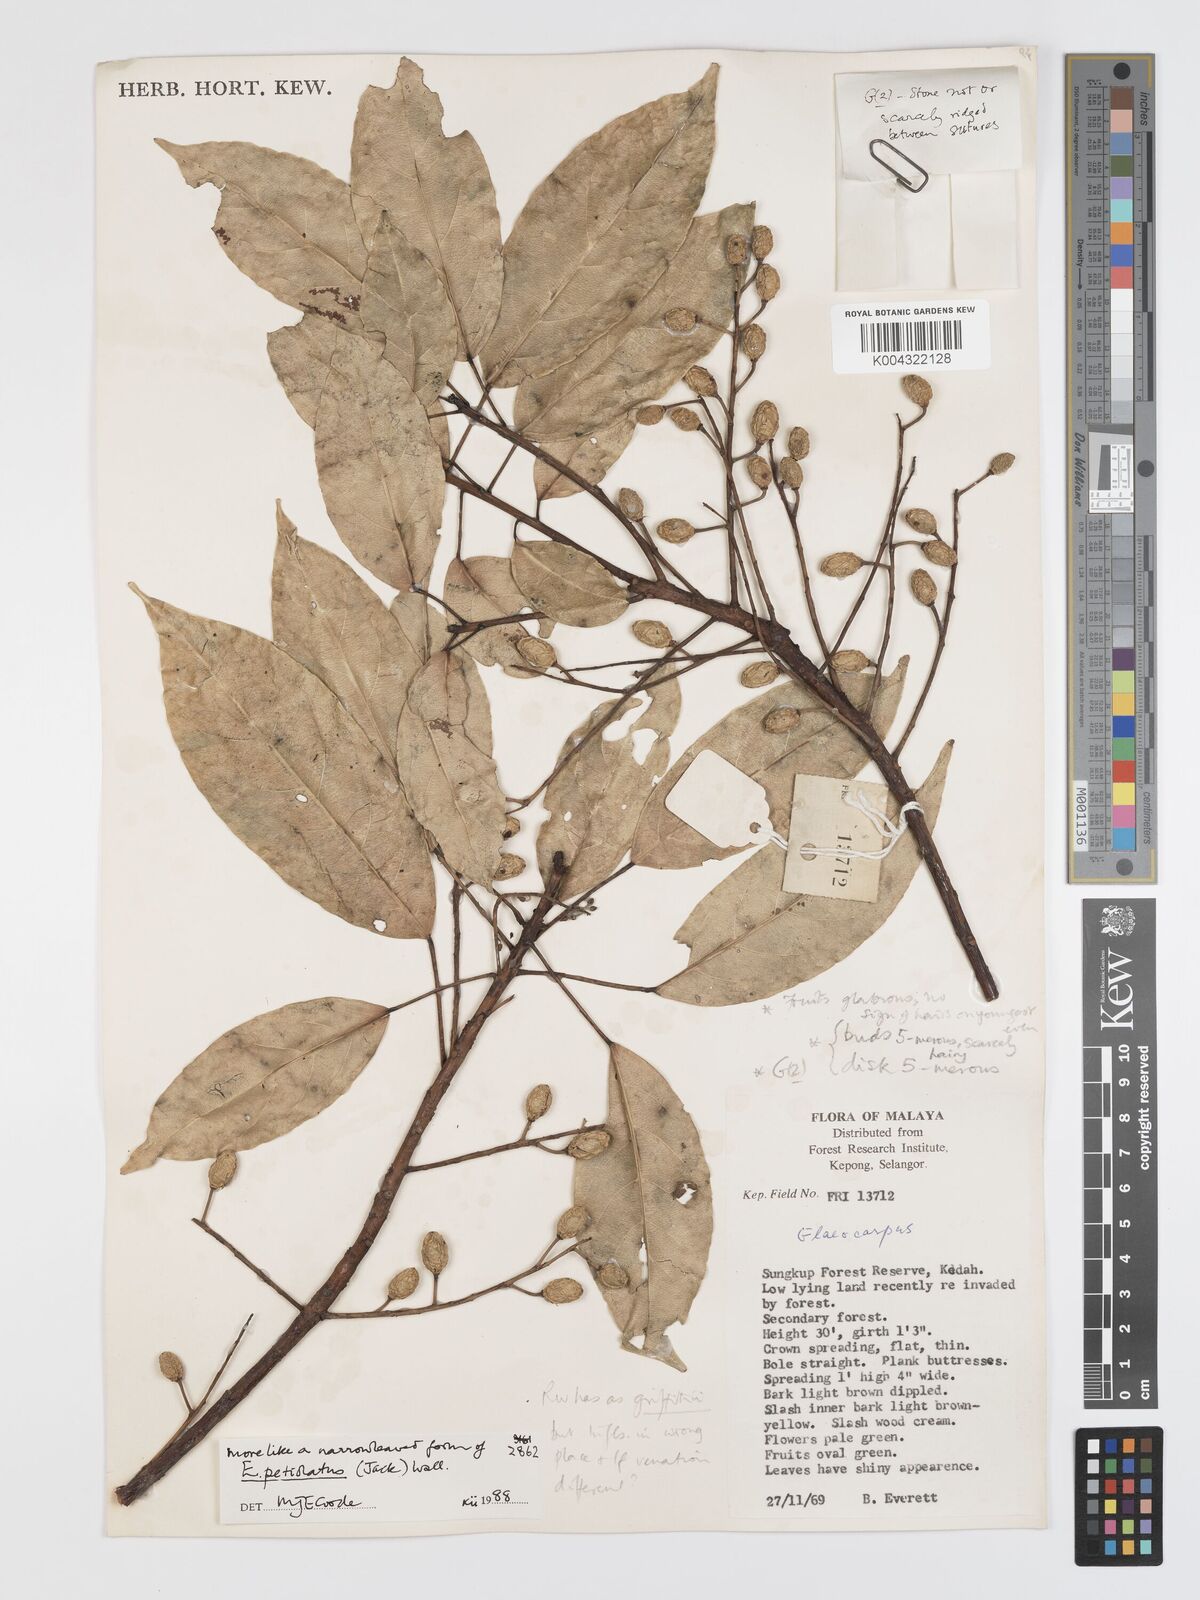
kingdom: Plantae
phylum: Tracheophyta
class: Magnoliopsida
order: Oxalidales
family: Elaeocarpaceae
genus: Elaeocarpus
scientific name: Elaeocarpus petiolatus
